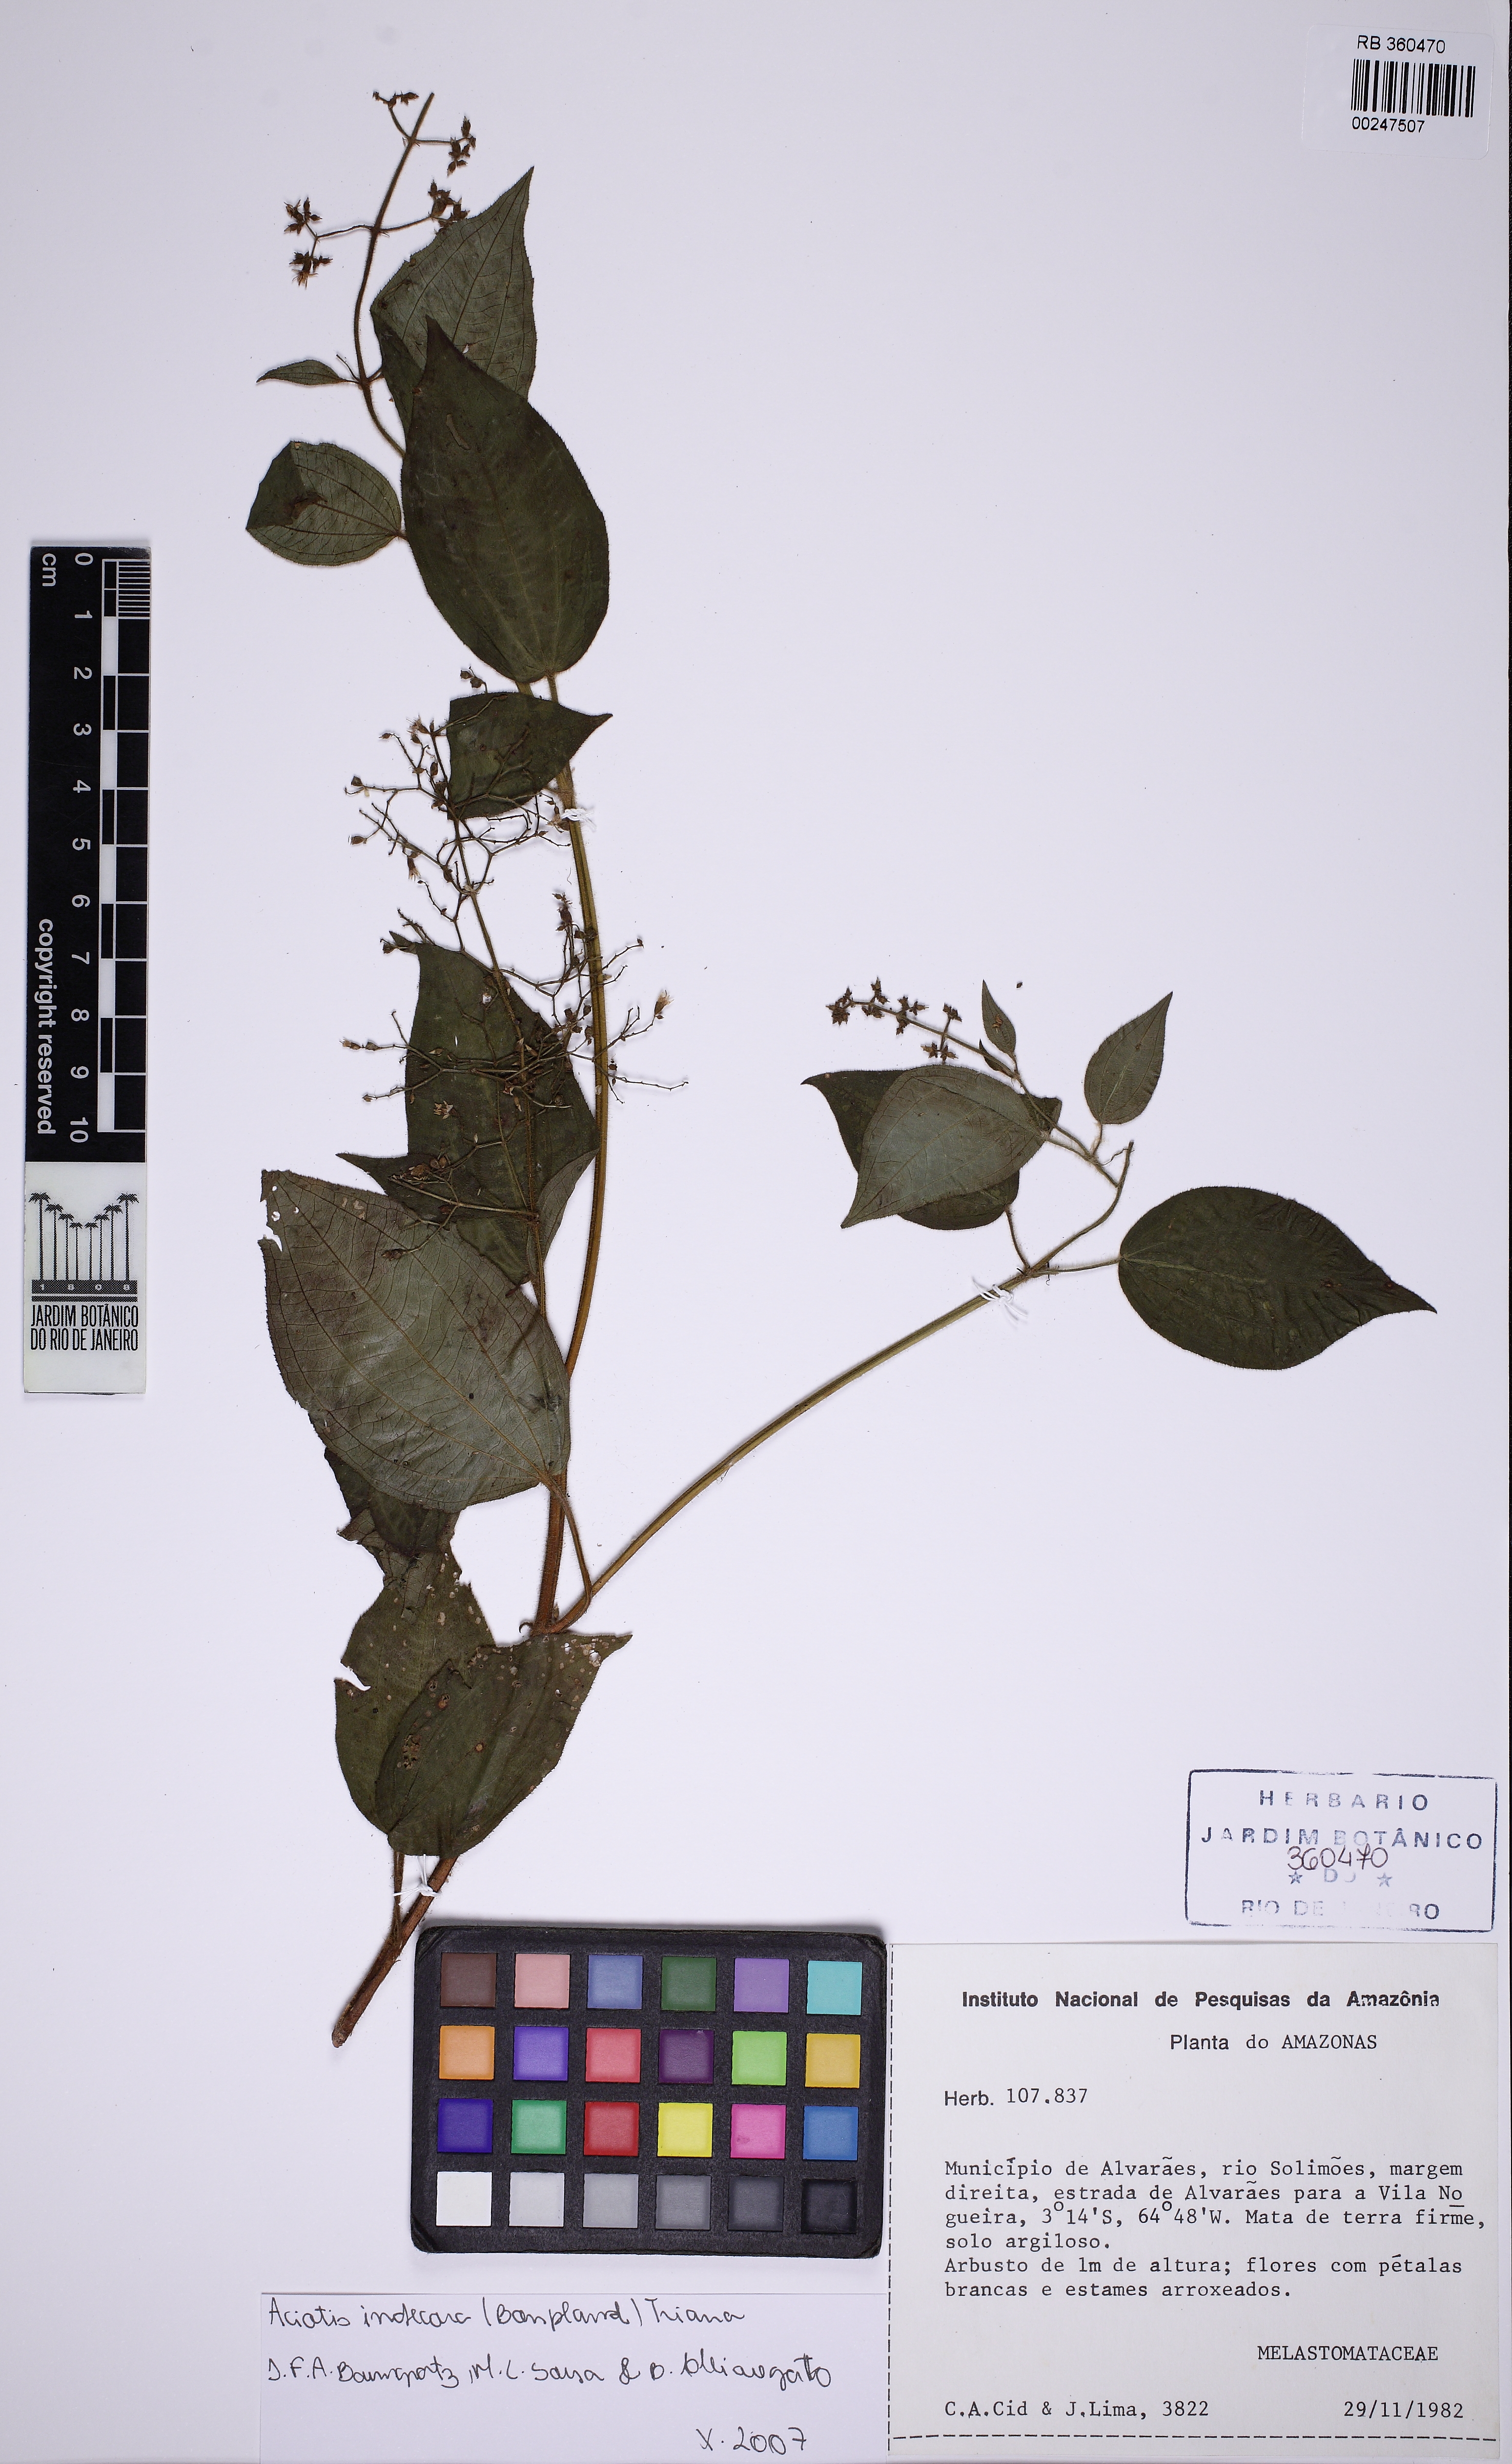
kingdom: Plantae
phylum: Tracheophyta
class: Magnoliopsida
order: Myrtales
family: Melastomataceae
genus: Aciotis
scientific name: Aciotis indecora
